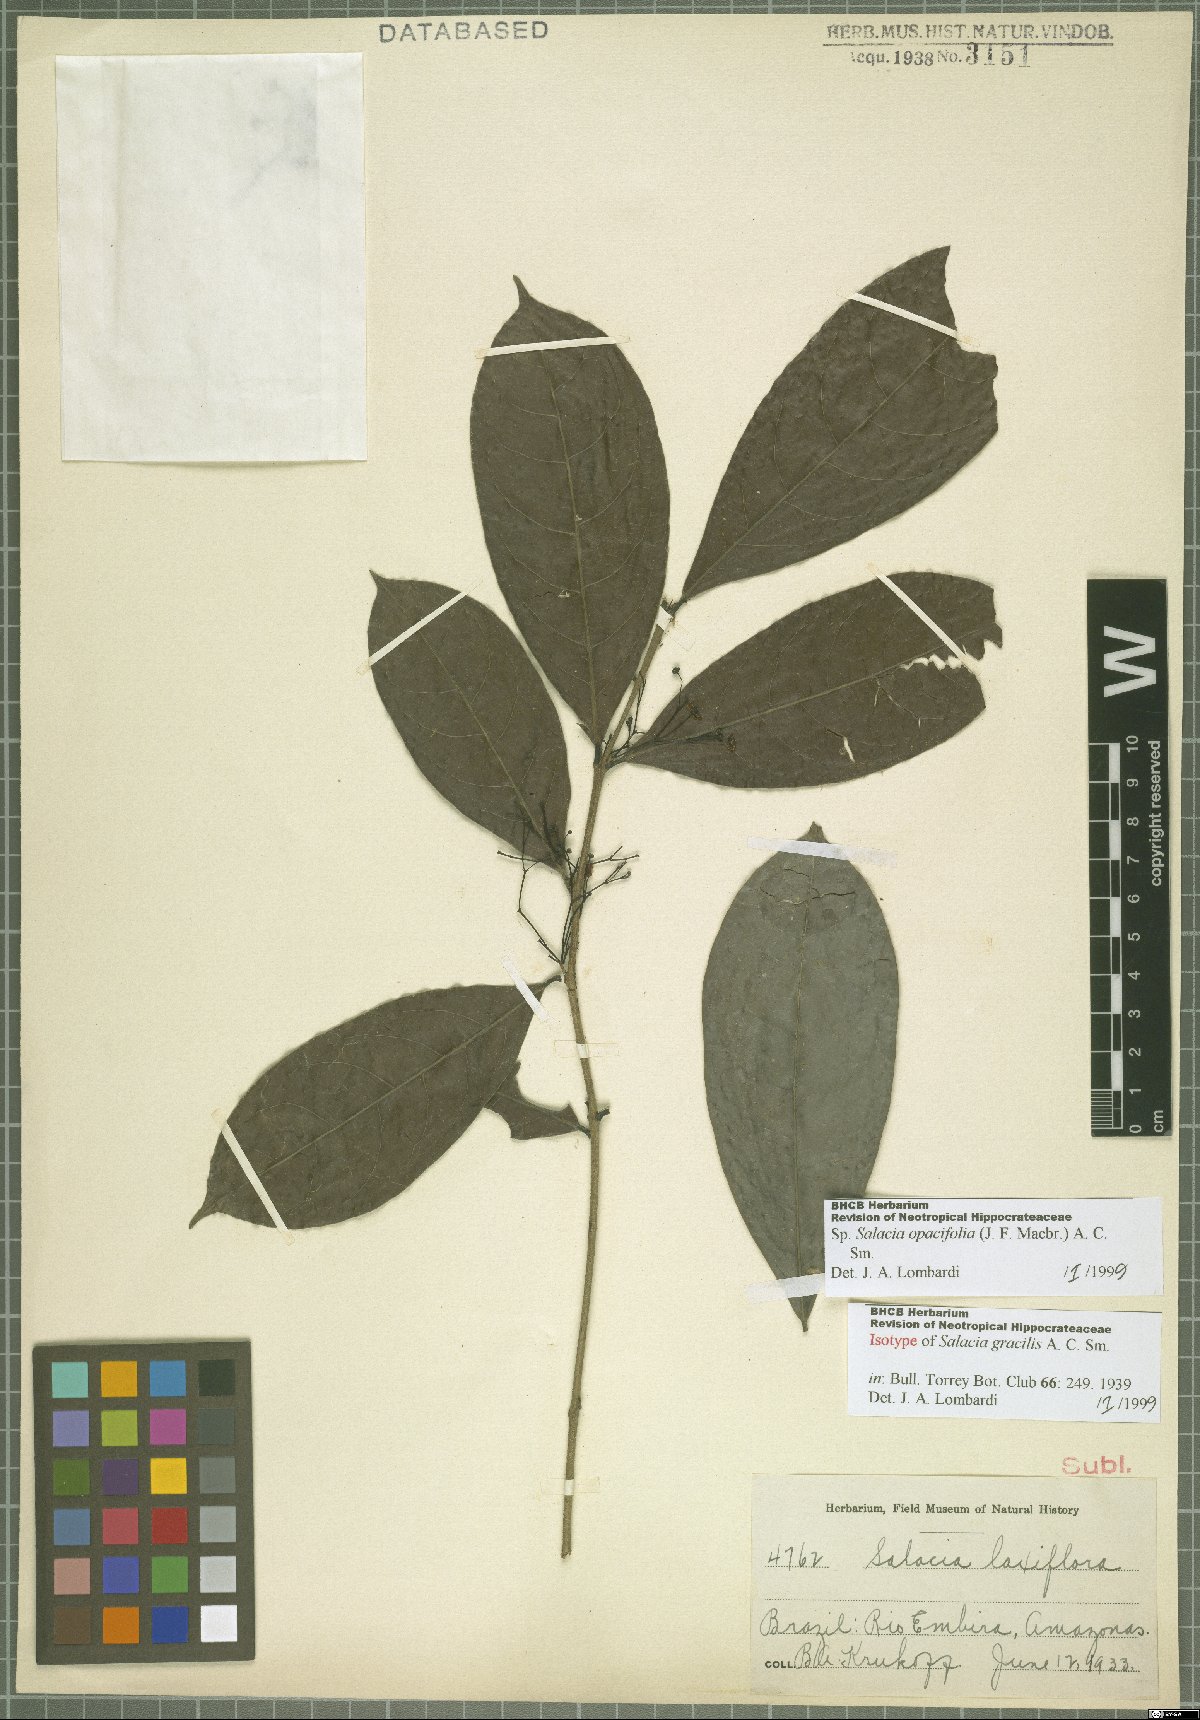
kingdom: Plantae
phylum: Tracheophyta
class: Magnoliopsida
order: Celastrales
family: Celastraceae
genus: Salacia
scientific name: Salacia opacifolia
